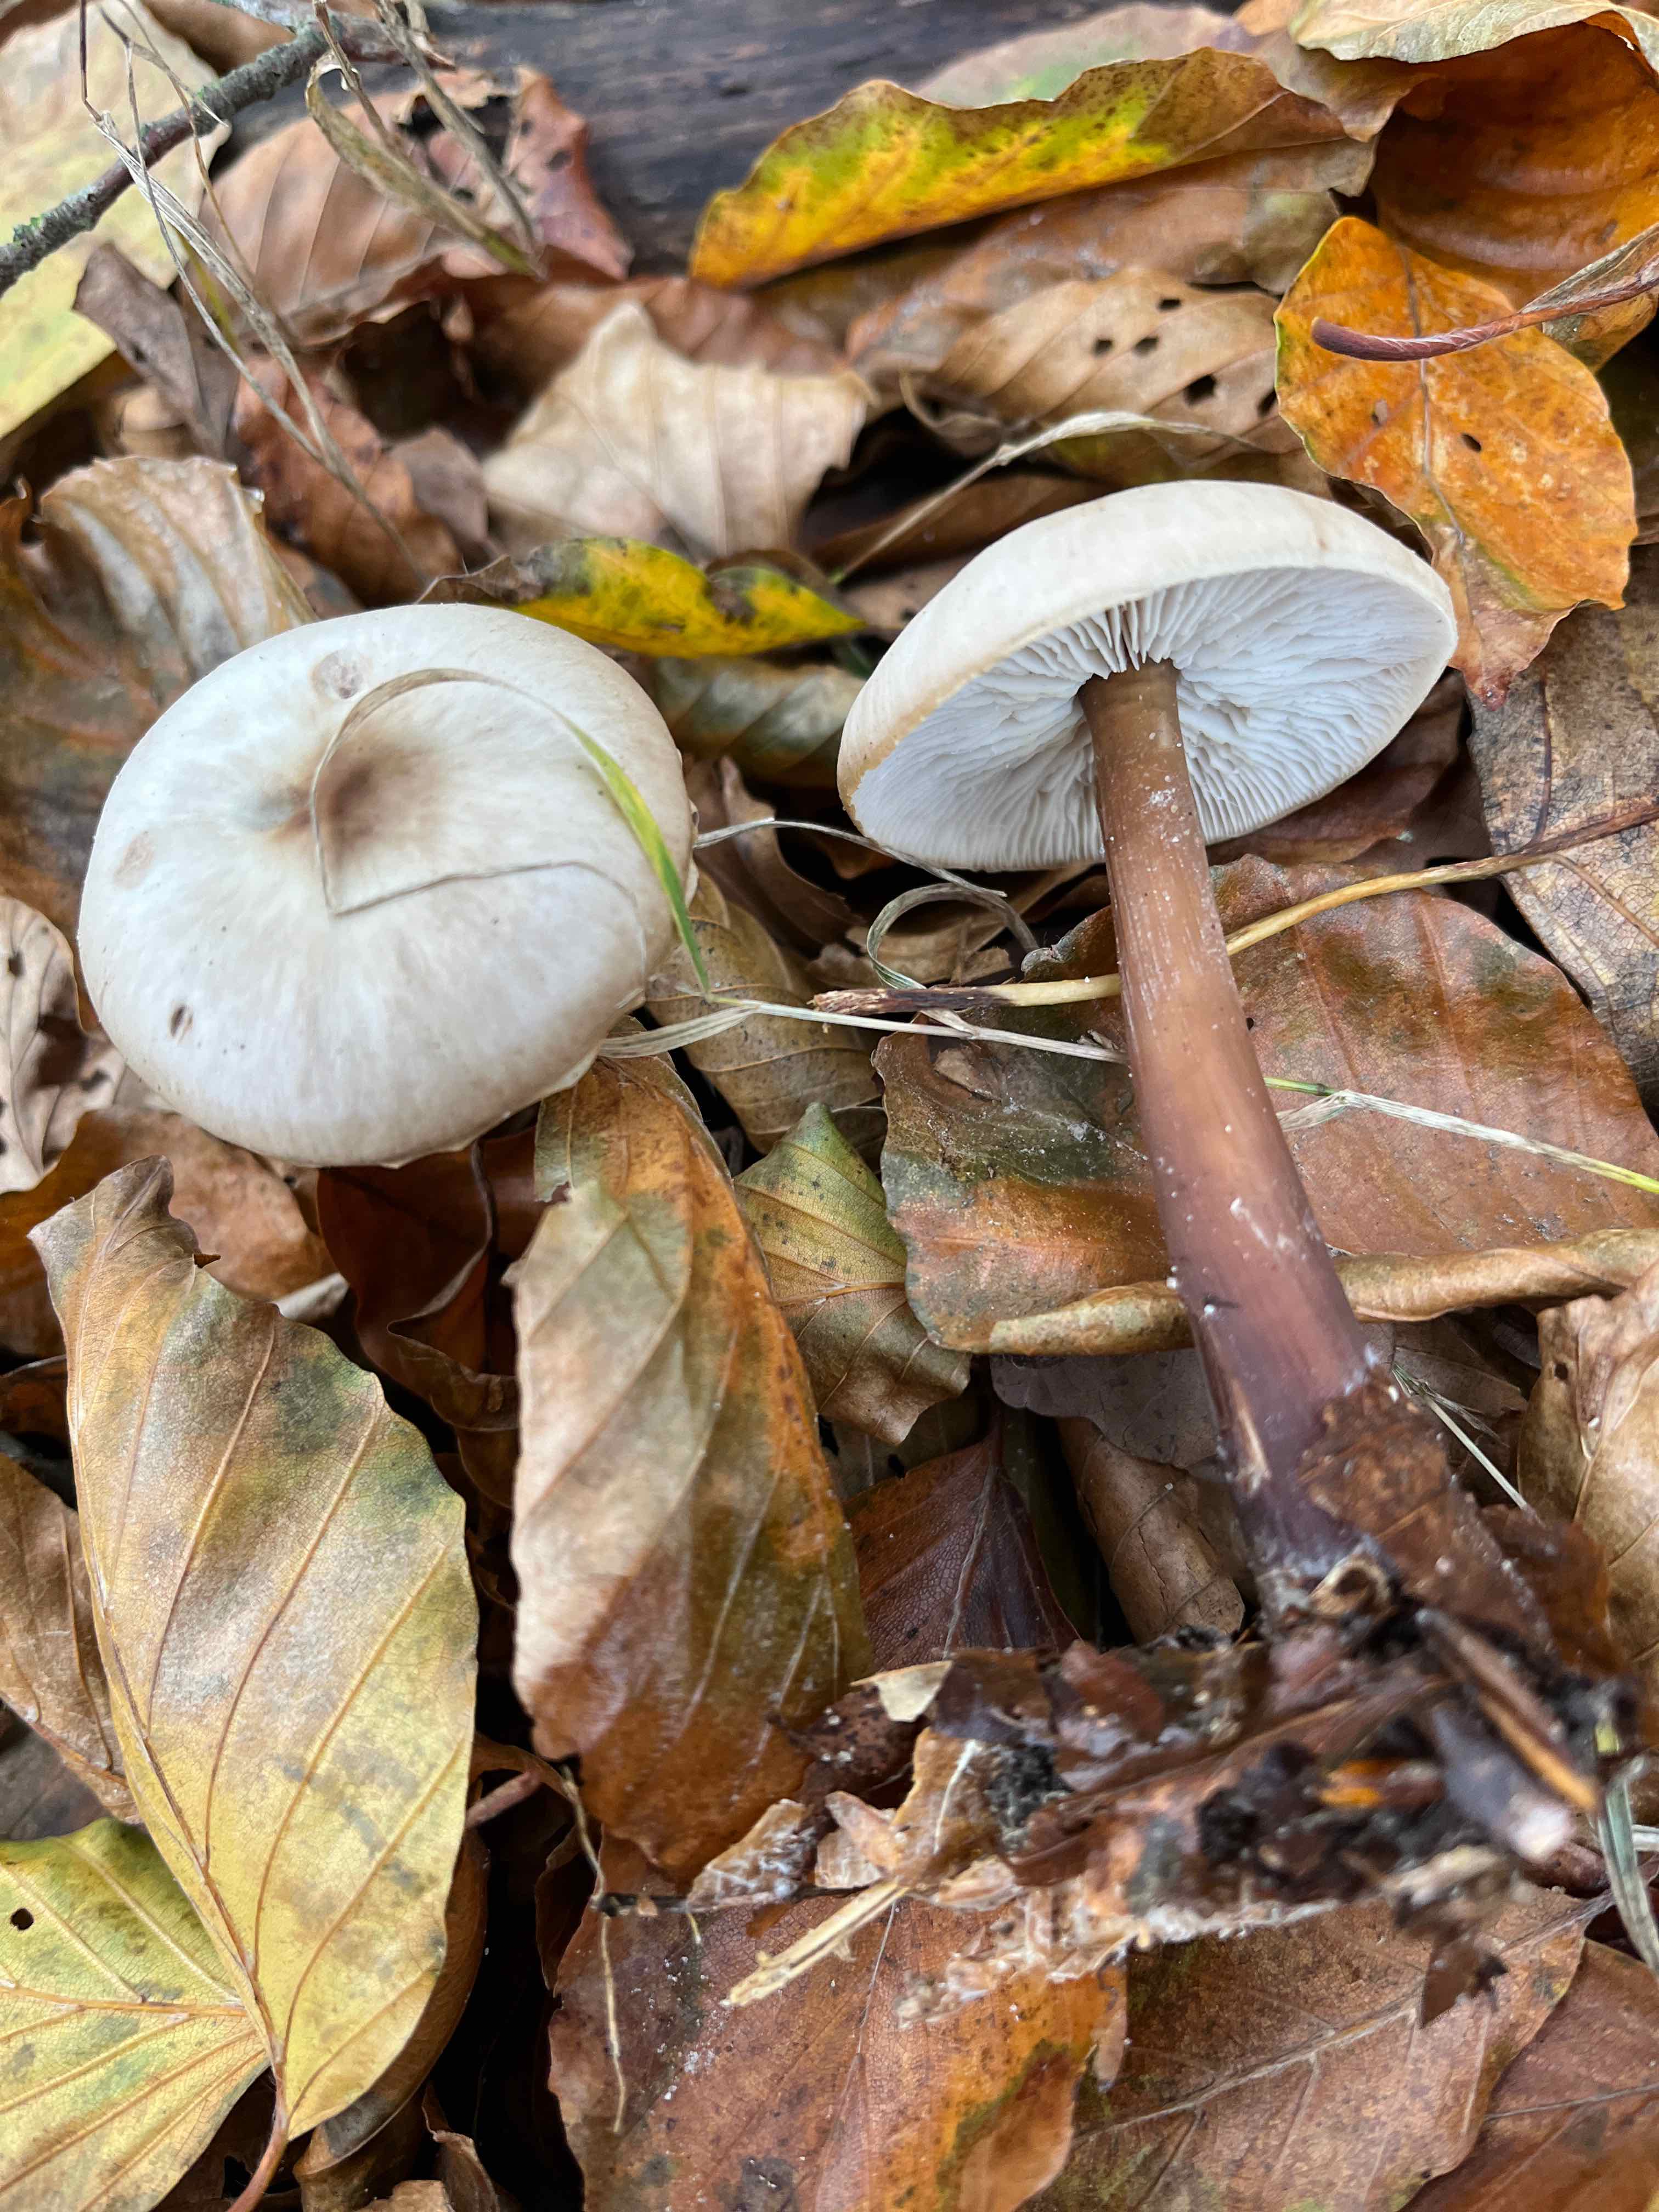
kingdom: Fungi
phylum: Basidiomycota
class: Agaricomycetes
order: Agaricales
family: Omphalotaceae
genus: Rhodocollybia
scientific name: Rhodocollybia asema
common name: horngrå fladhat
